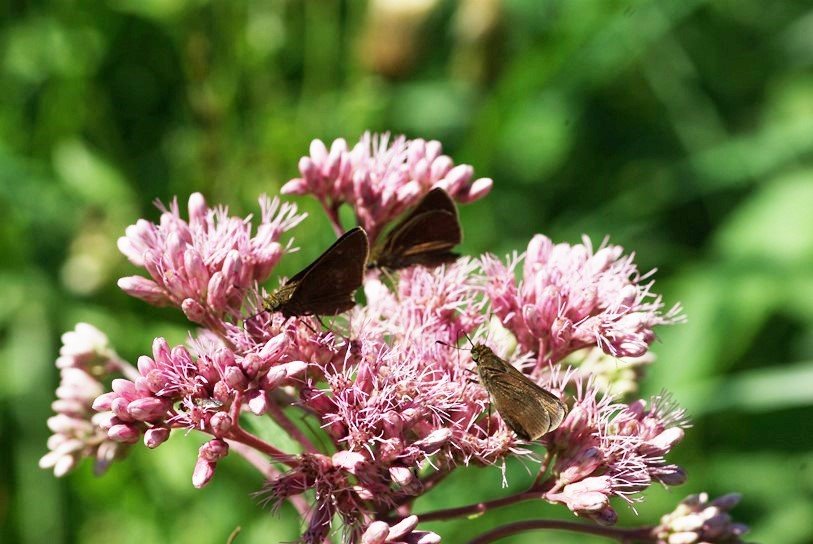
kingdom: Animalia
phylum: Arthropoda
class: Insecta
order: Lepidoptera
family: Hesperiidae
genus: Euphyes
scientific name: Euphyes vestris
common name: Dun Skipper
